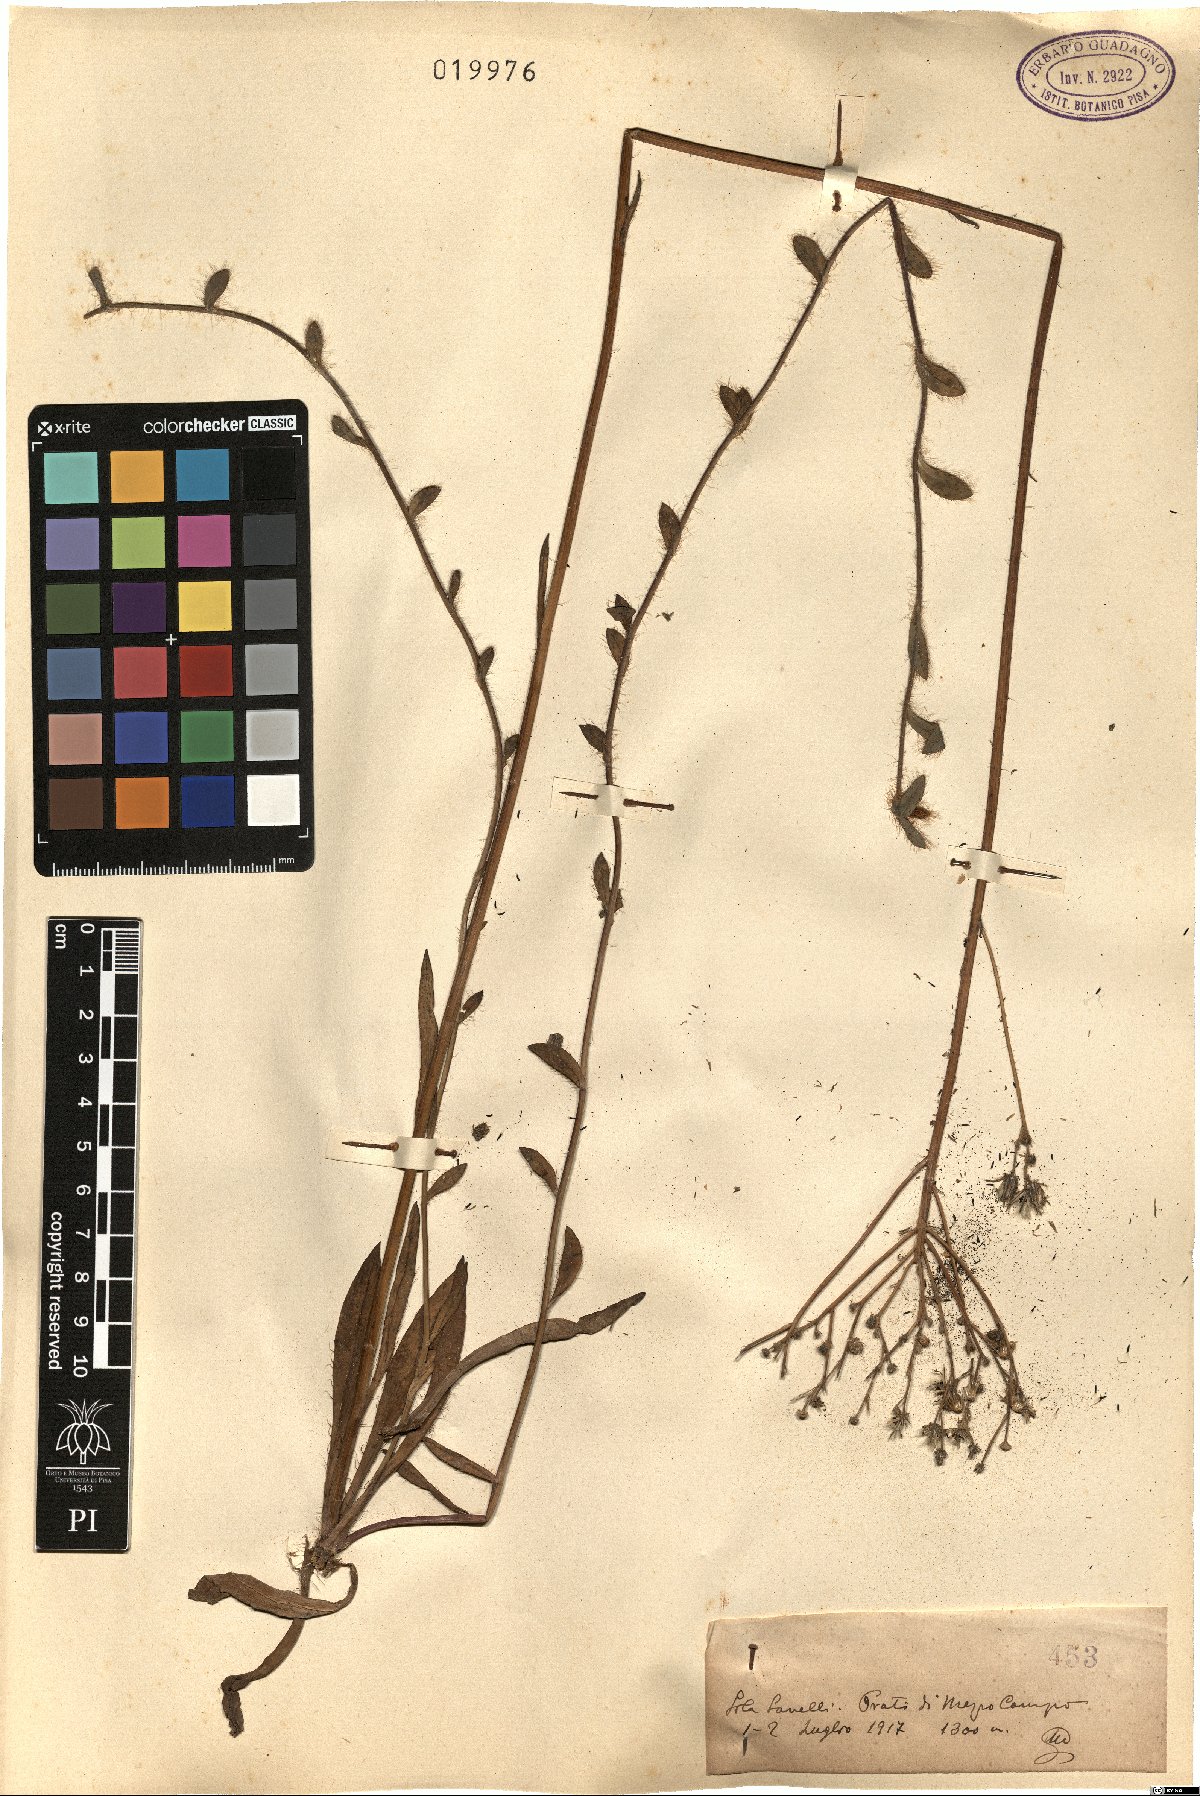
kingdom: Plantae
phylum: Tracheophyta
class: Magnoliopsida
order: Asterales
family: Asteraceae
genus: Hieracium
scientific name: Hieracium
